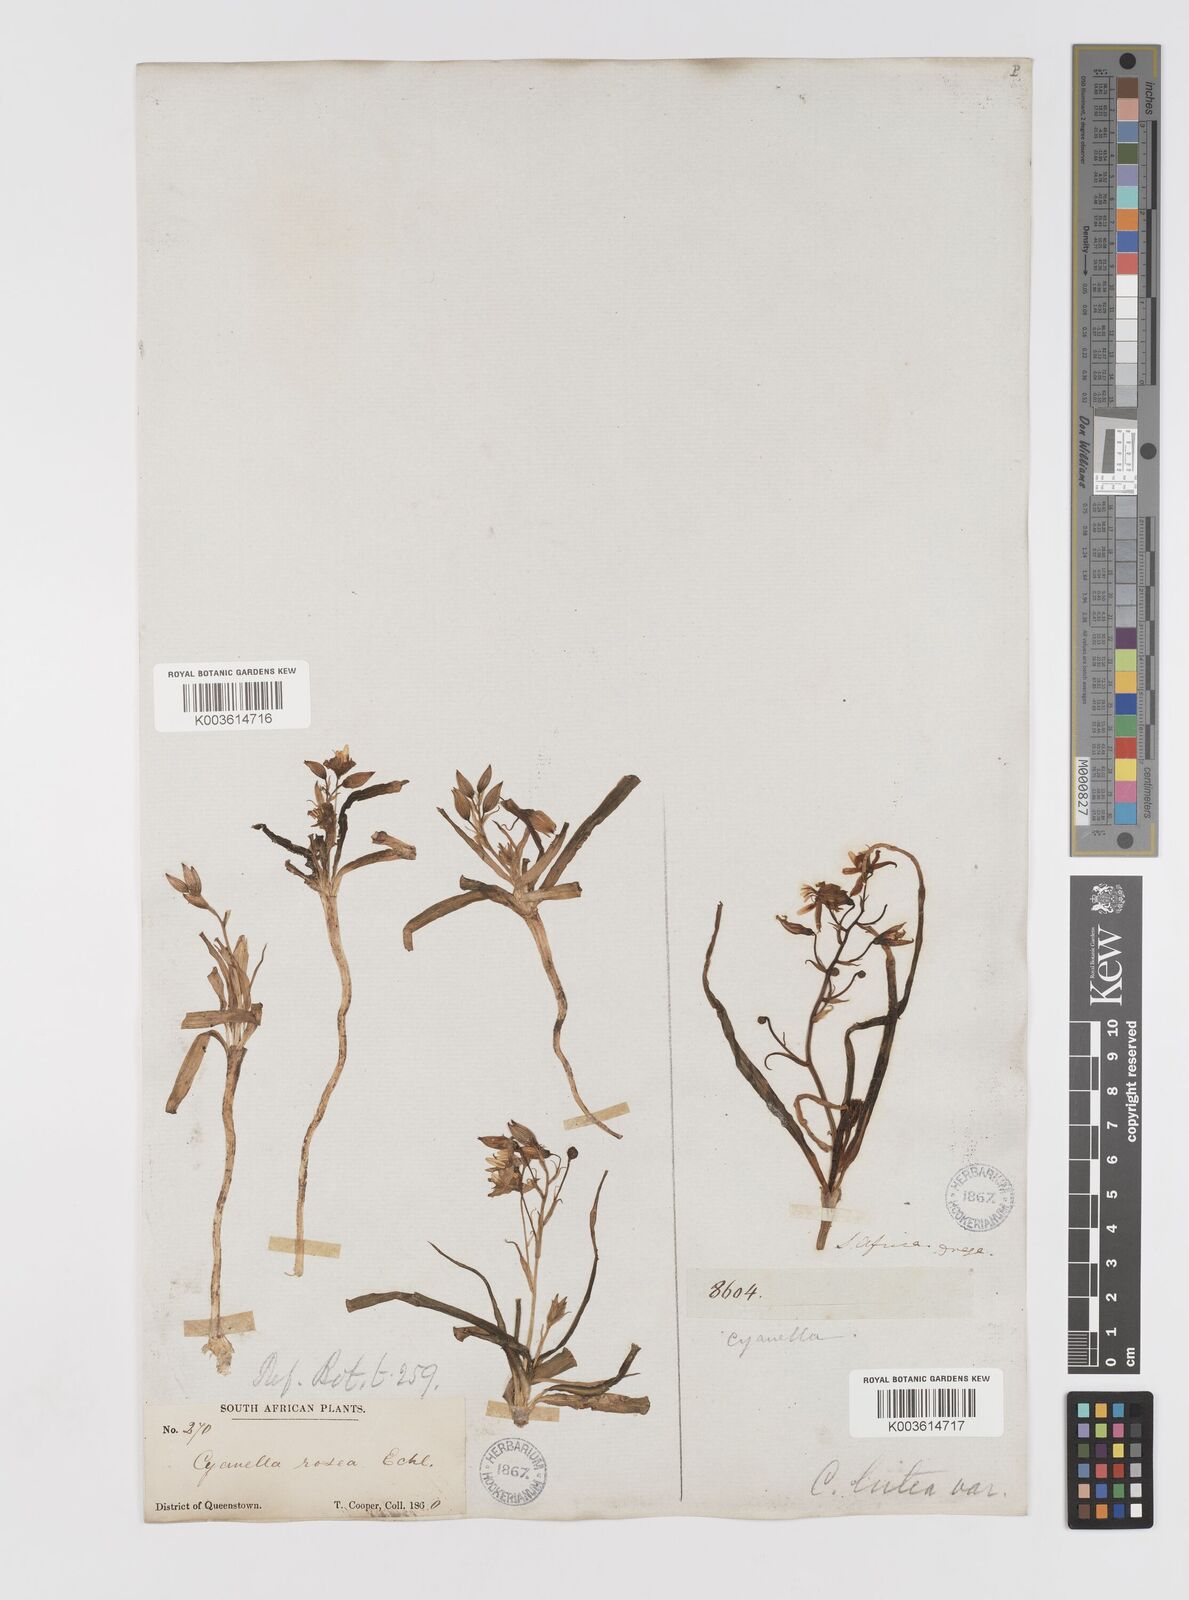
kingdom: Plantae
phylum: Tracheophyta
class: Liliopsida
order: Asparagales
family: Tecophilaeaceae
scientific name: Tecophilaeaceae
